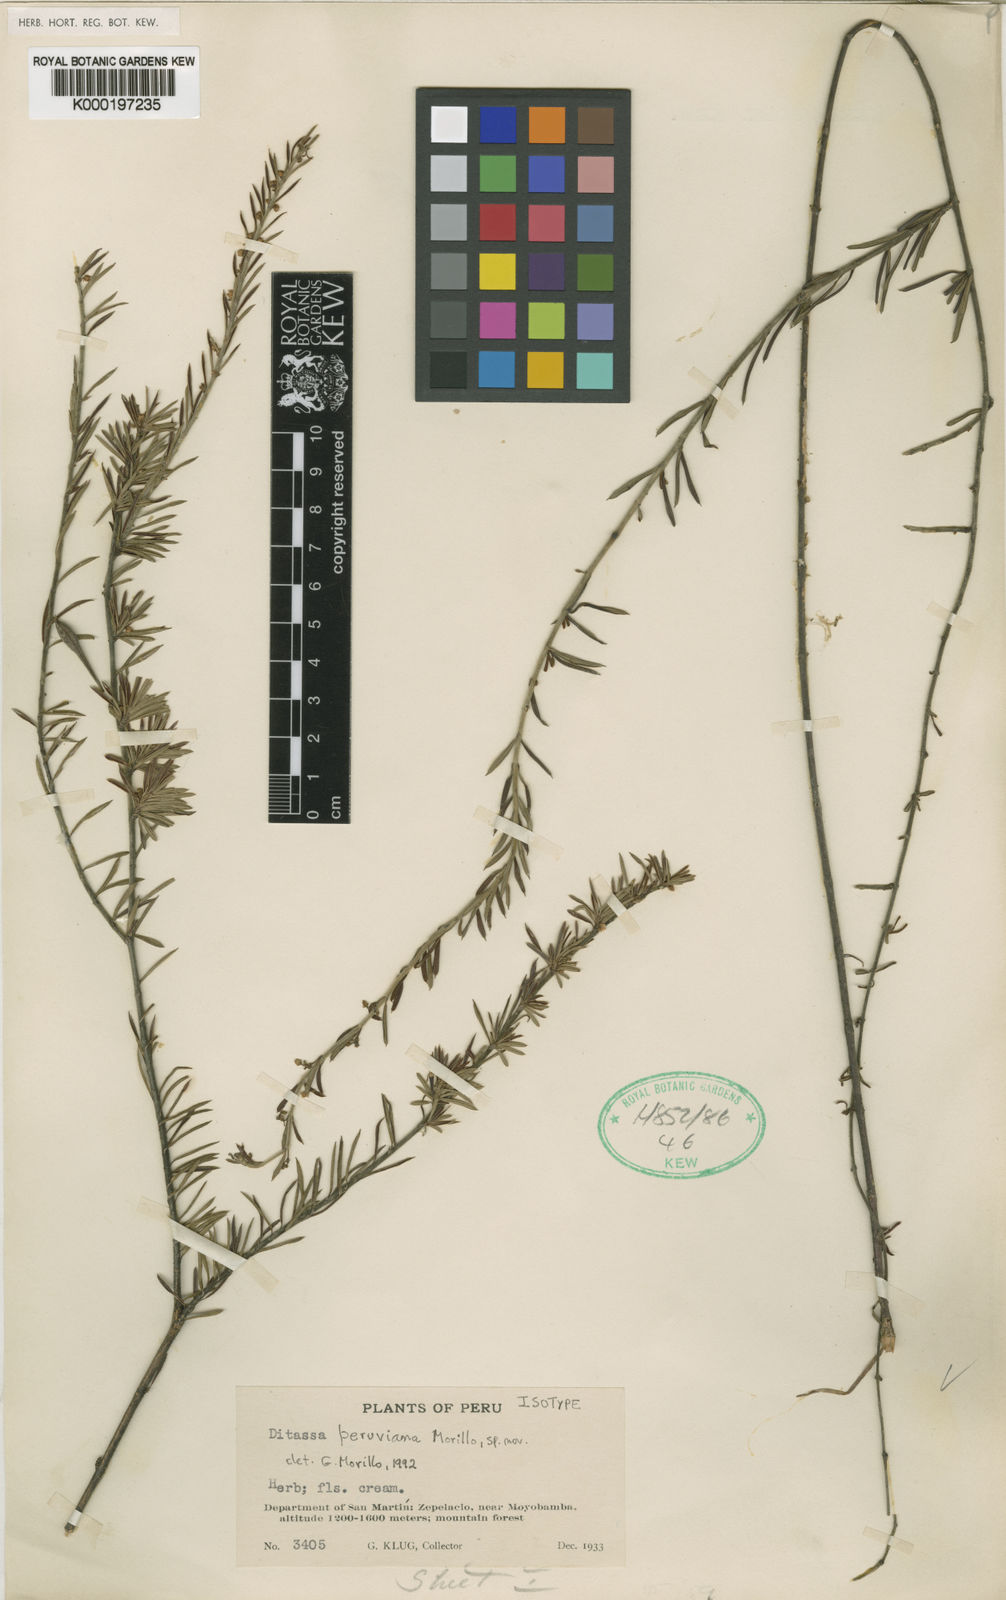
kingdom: Plantae
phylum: Tracheophyta
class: Magnoliopsida
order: Gentianales
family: Apocynaceae
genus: Ditassa
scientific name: Ditassa peruviana
